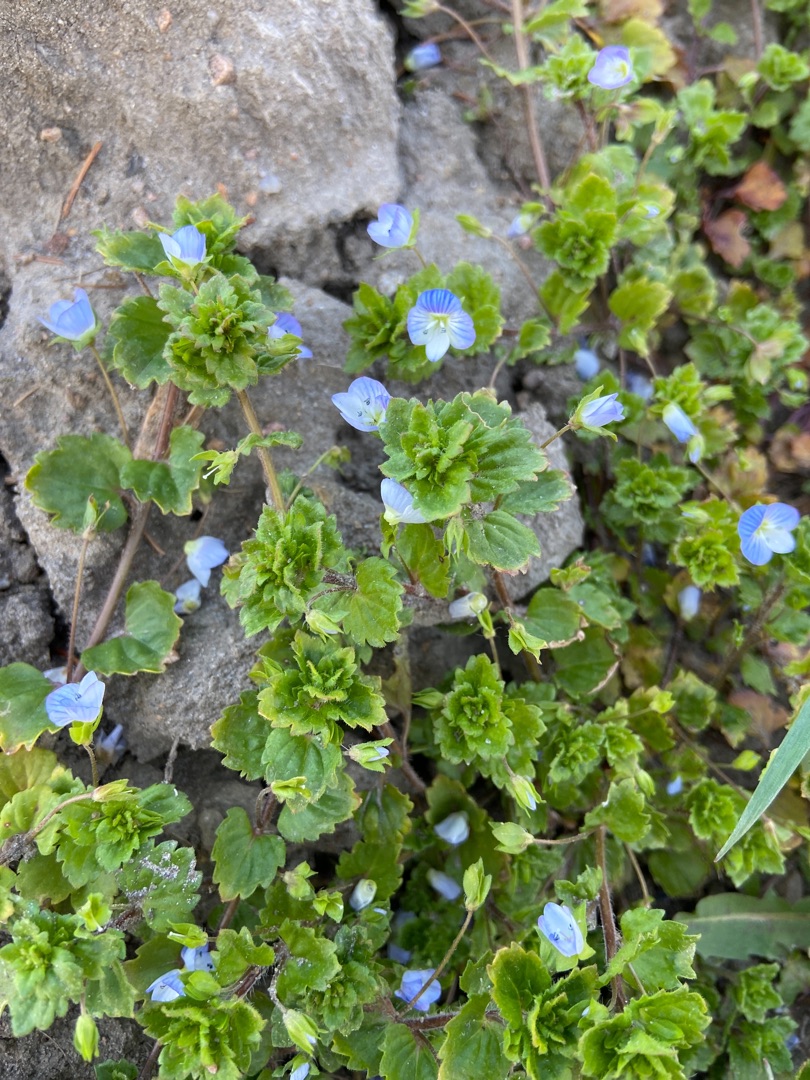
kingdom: Plantae
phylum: Tracheophyta
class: Magnoliopsida
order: Lamiales
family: Plantaginaceae
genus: Veronica
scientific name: Veronica persica
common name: Storkronet ærenpris
